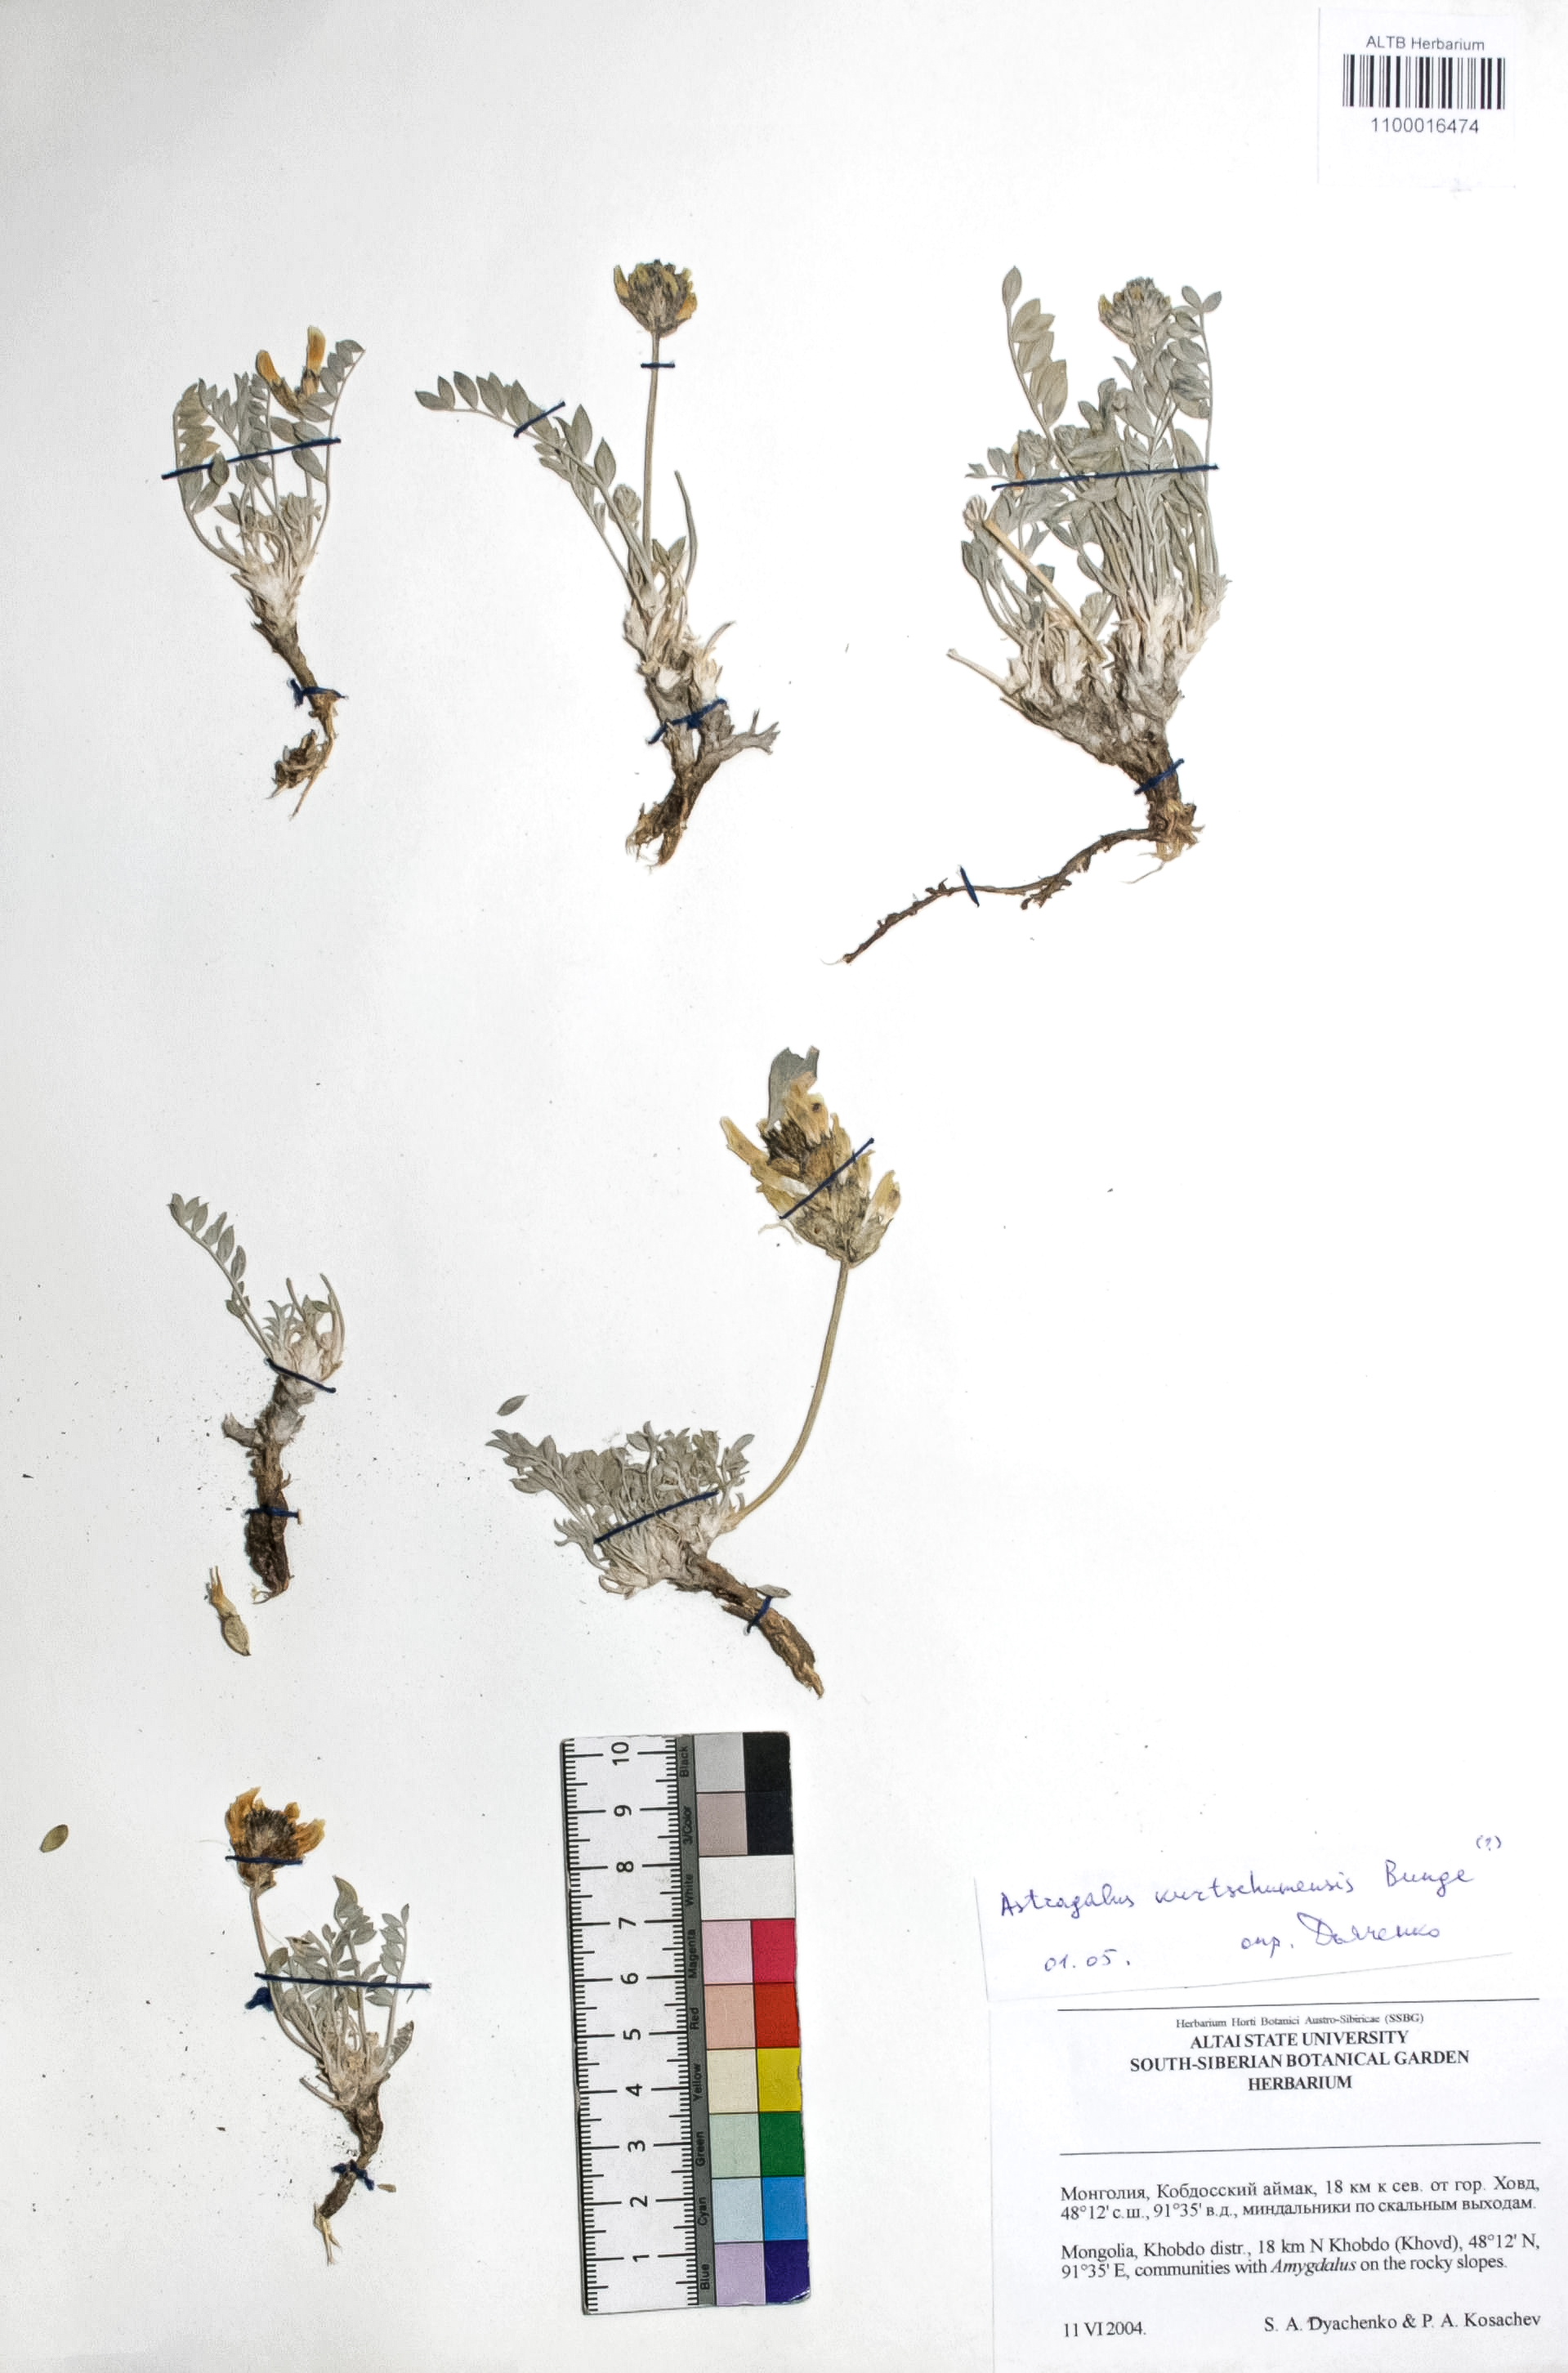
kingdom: Plantae
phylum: Tracheophyta
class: Magnoliopsida
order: Fabales
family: Fabaceae
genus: Astragalus
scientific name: Astragalus kurtschumensis
